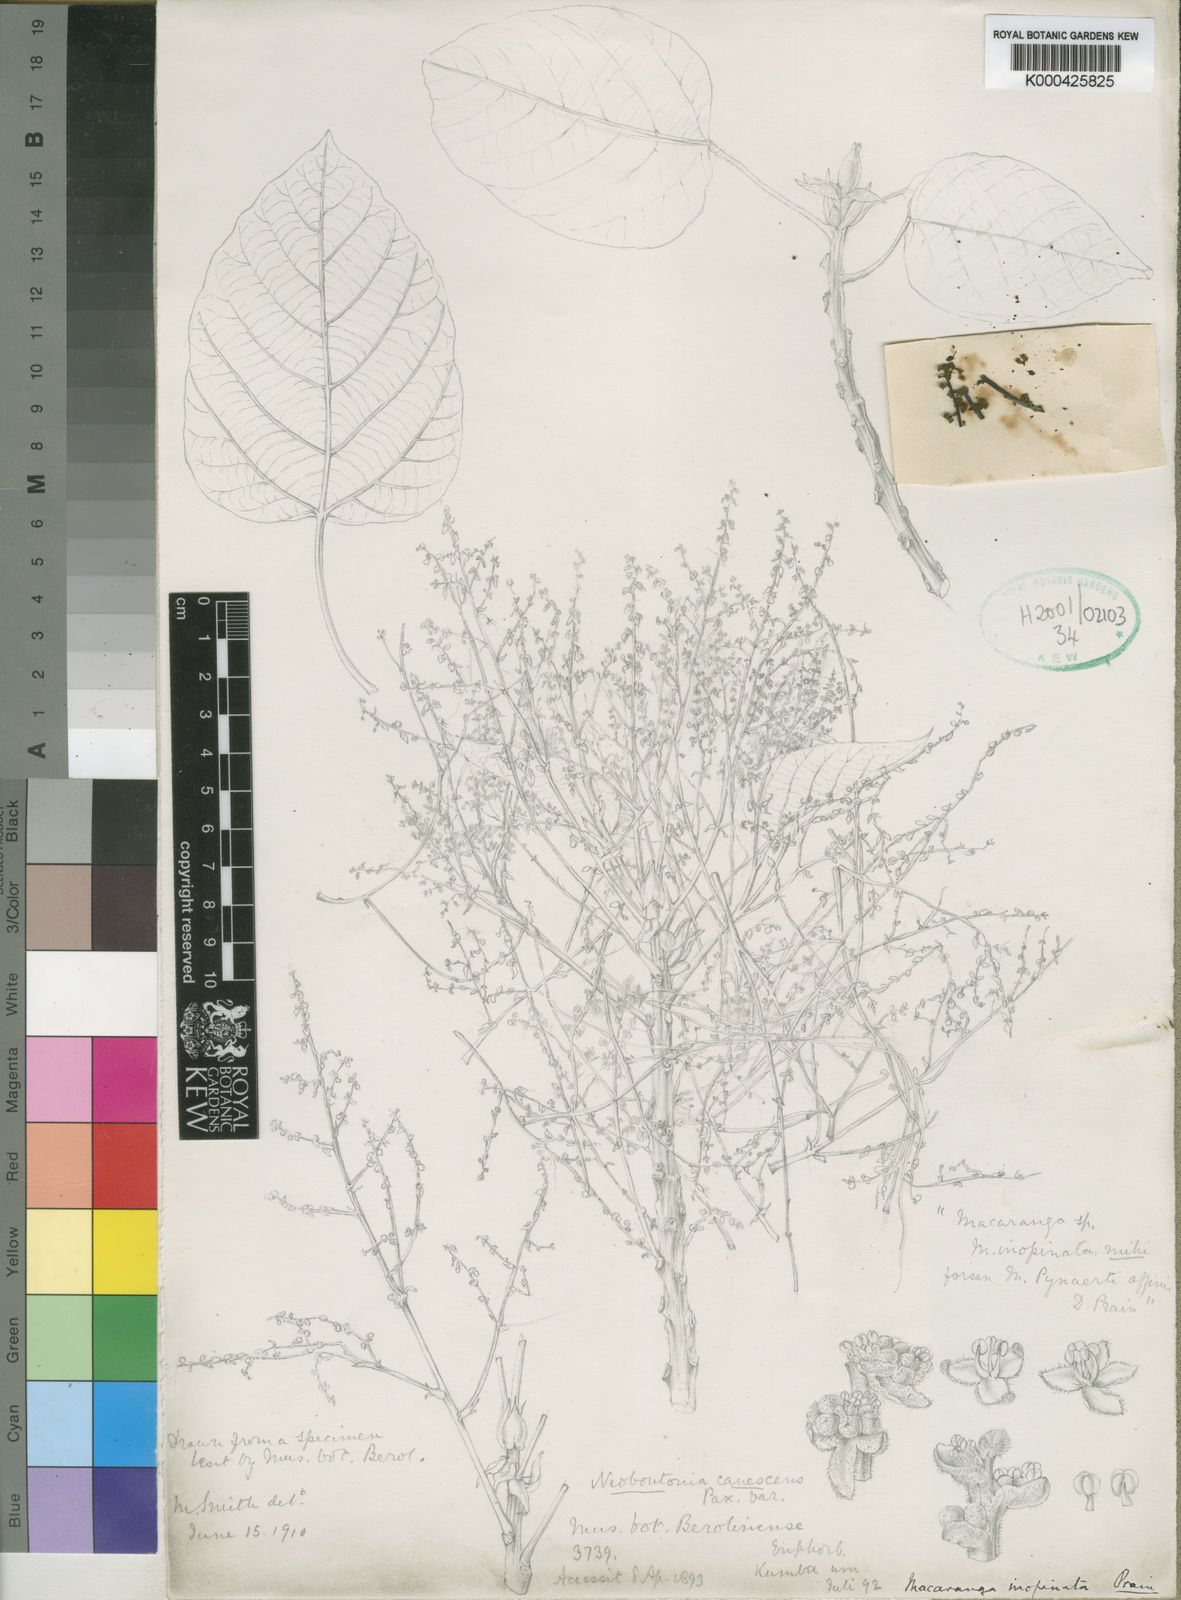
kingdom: Plantae
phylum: Tracheophyta
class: Magnoliopsida
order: Malpighiales
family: Euphorbiaceae
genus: Macaranga
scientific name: Macaranga capensis
